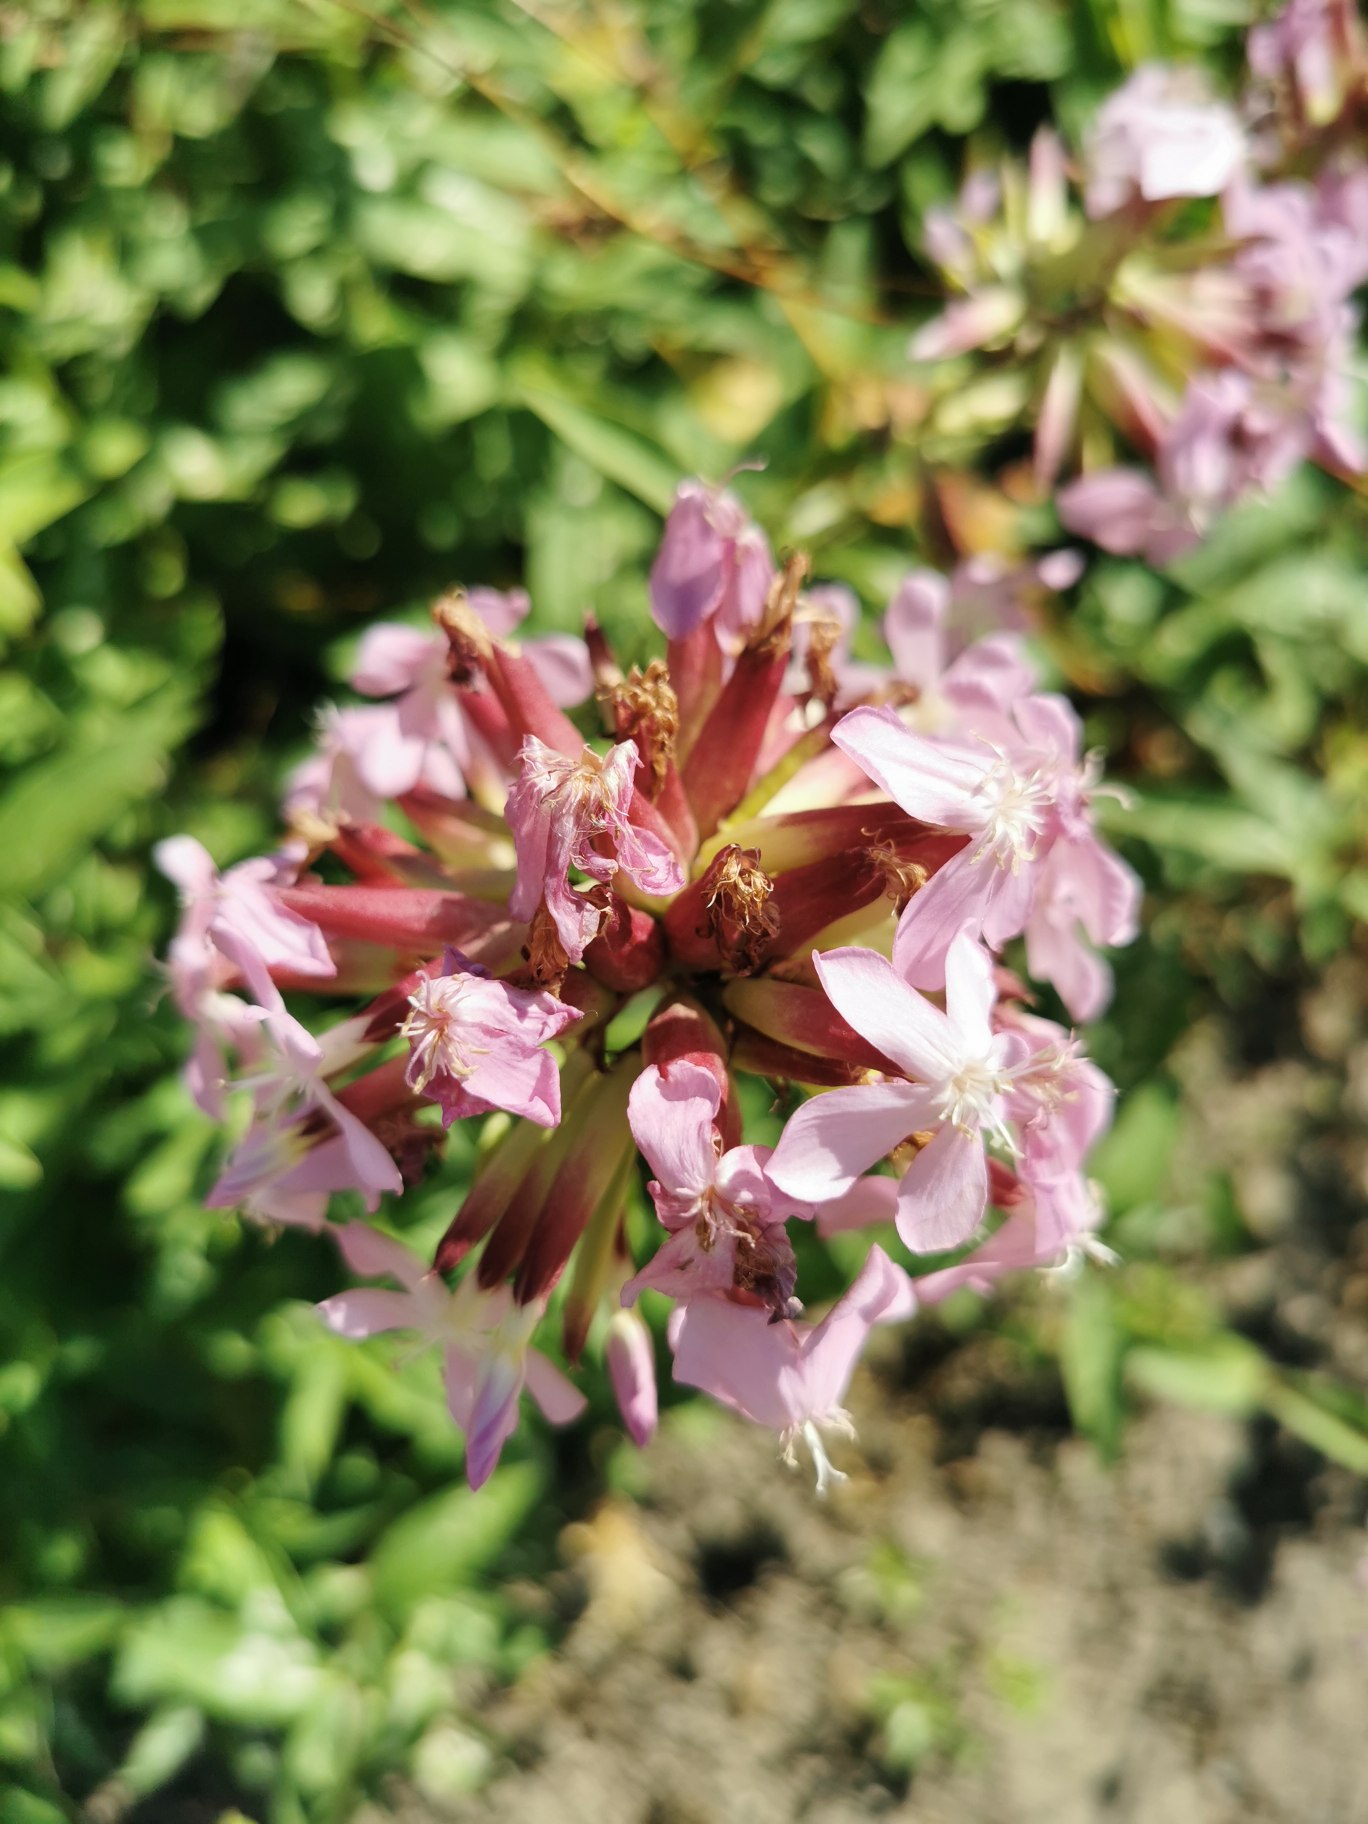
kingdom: Plantae
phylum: Tracheophyta
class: Magnoliopsida
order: Caryophyllales
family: Caryophyllaceae
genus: Saponaria
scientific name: Saponaria officinalis
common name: Sæbeurt
